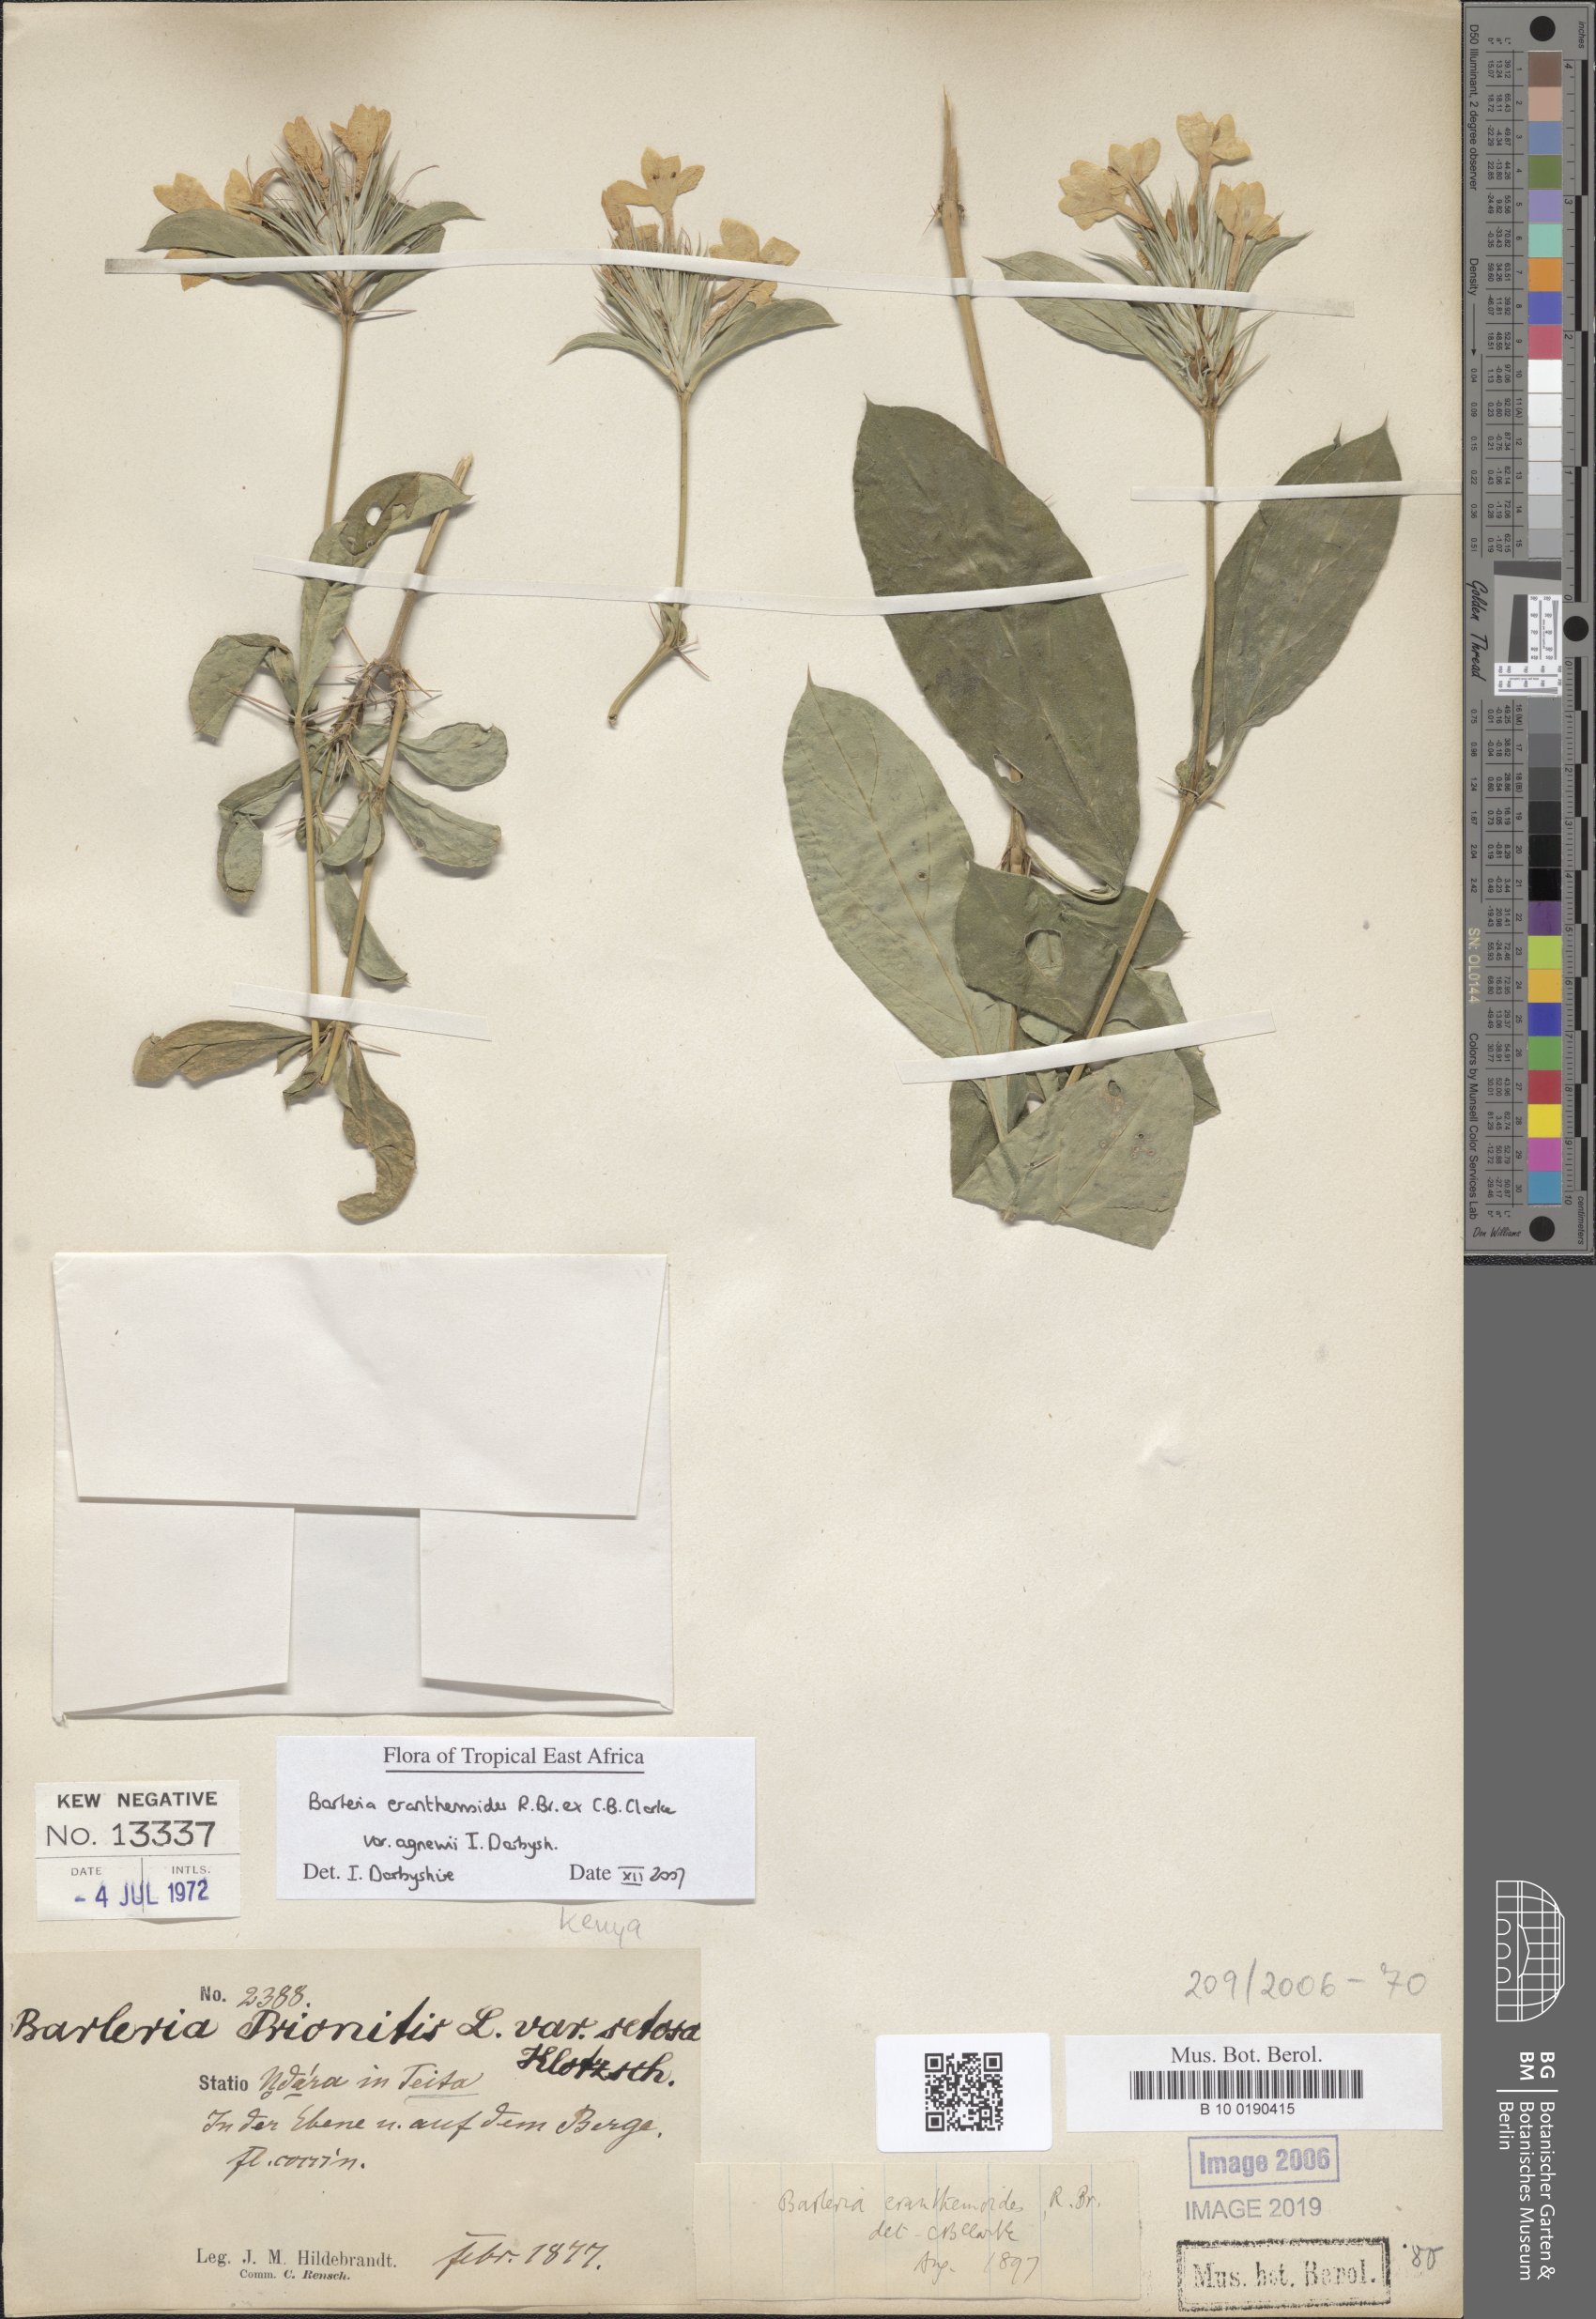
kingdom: Plantae
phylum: Tracheophyta
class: Magnoliopsida
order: Lamiales
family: Acanthaceae
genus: Barleria
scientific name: Barleria eranthemoides
